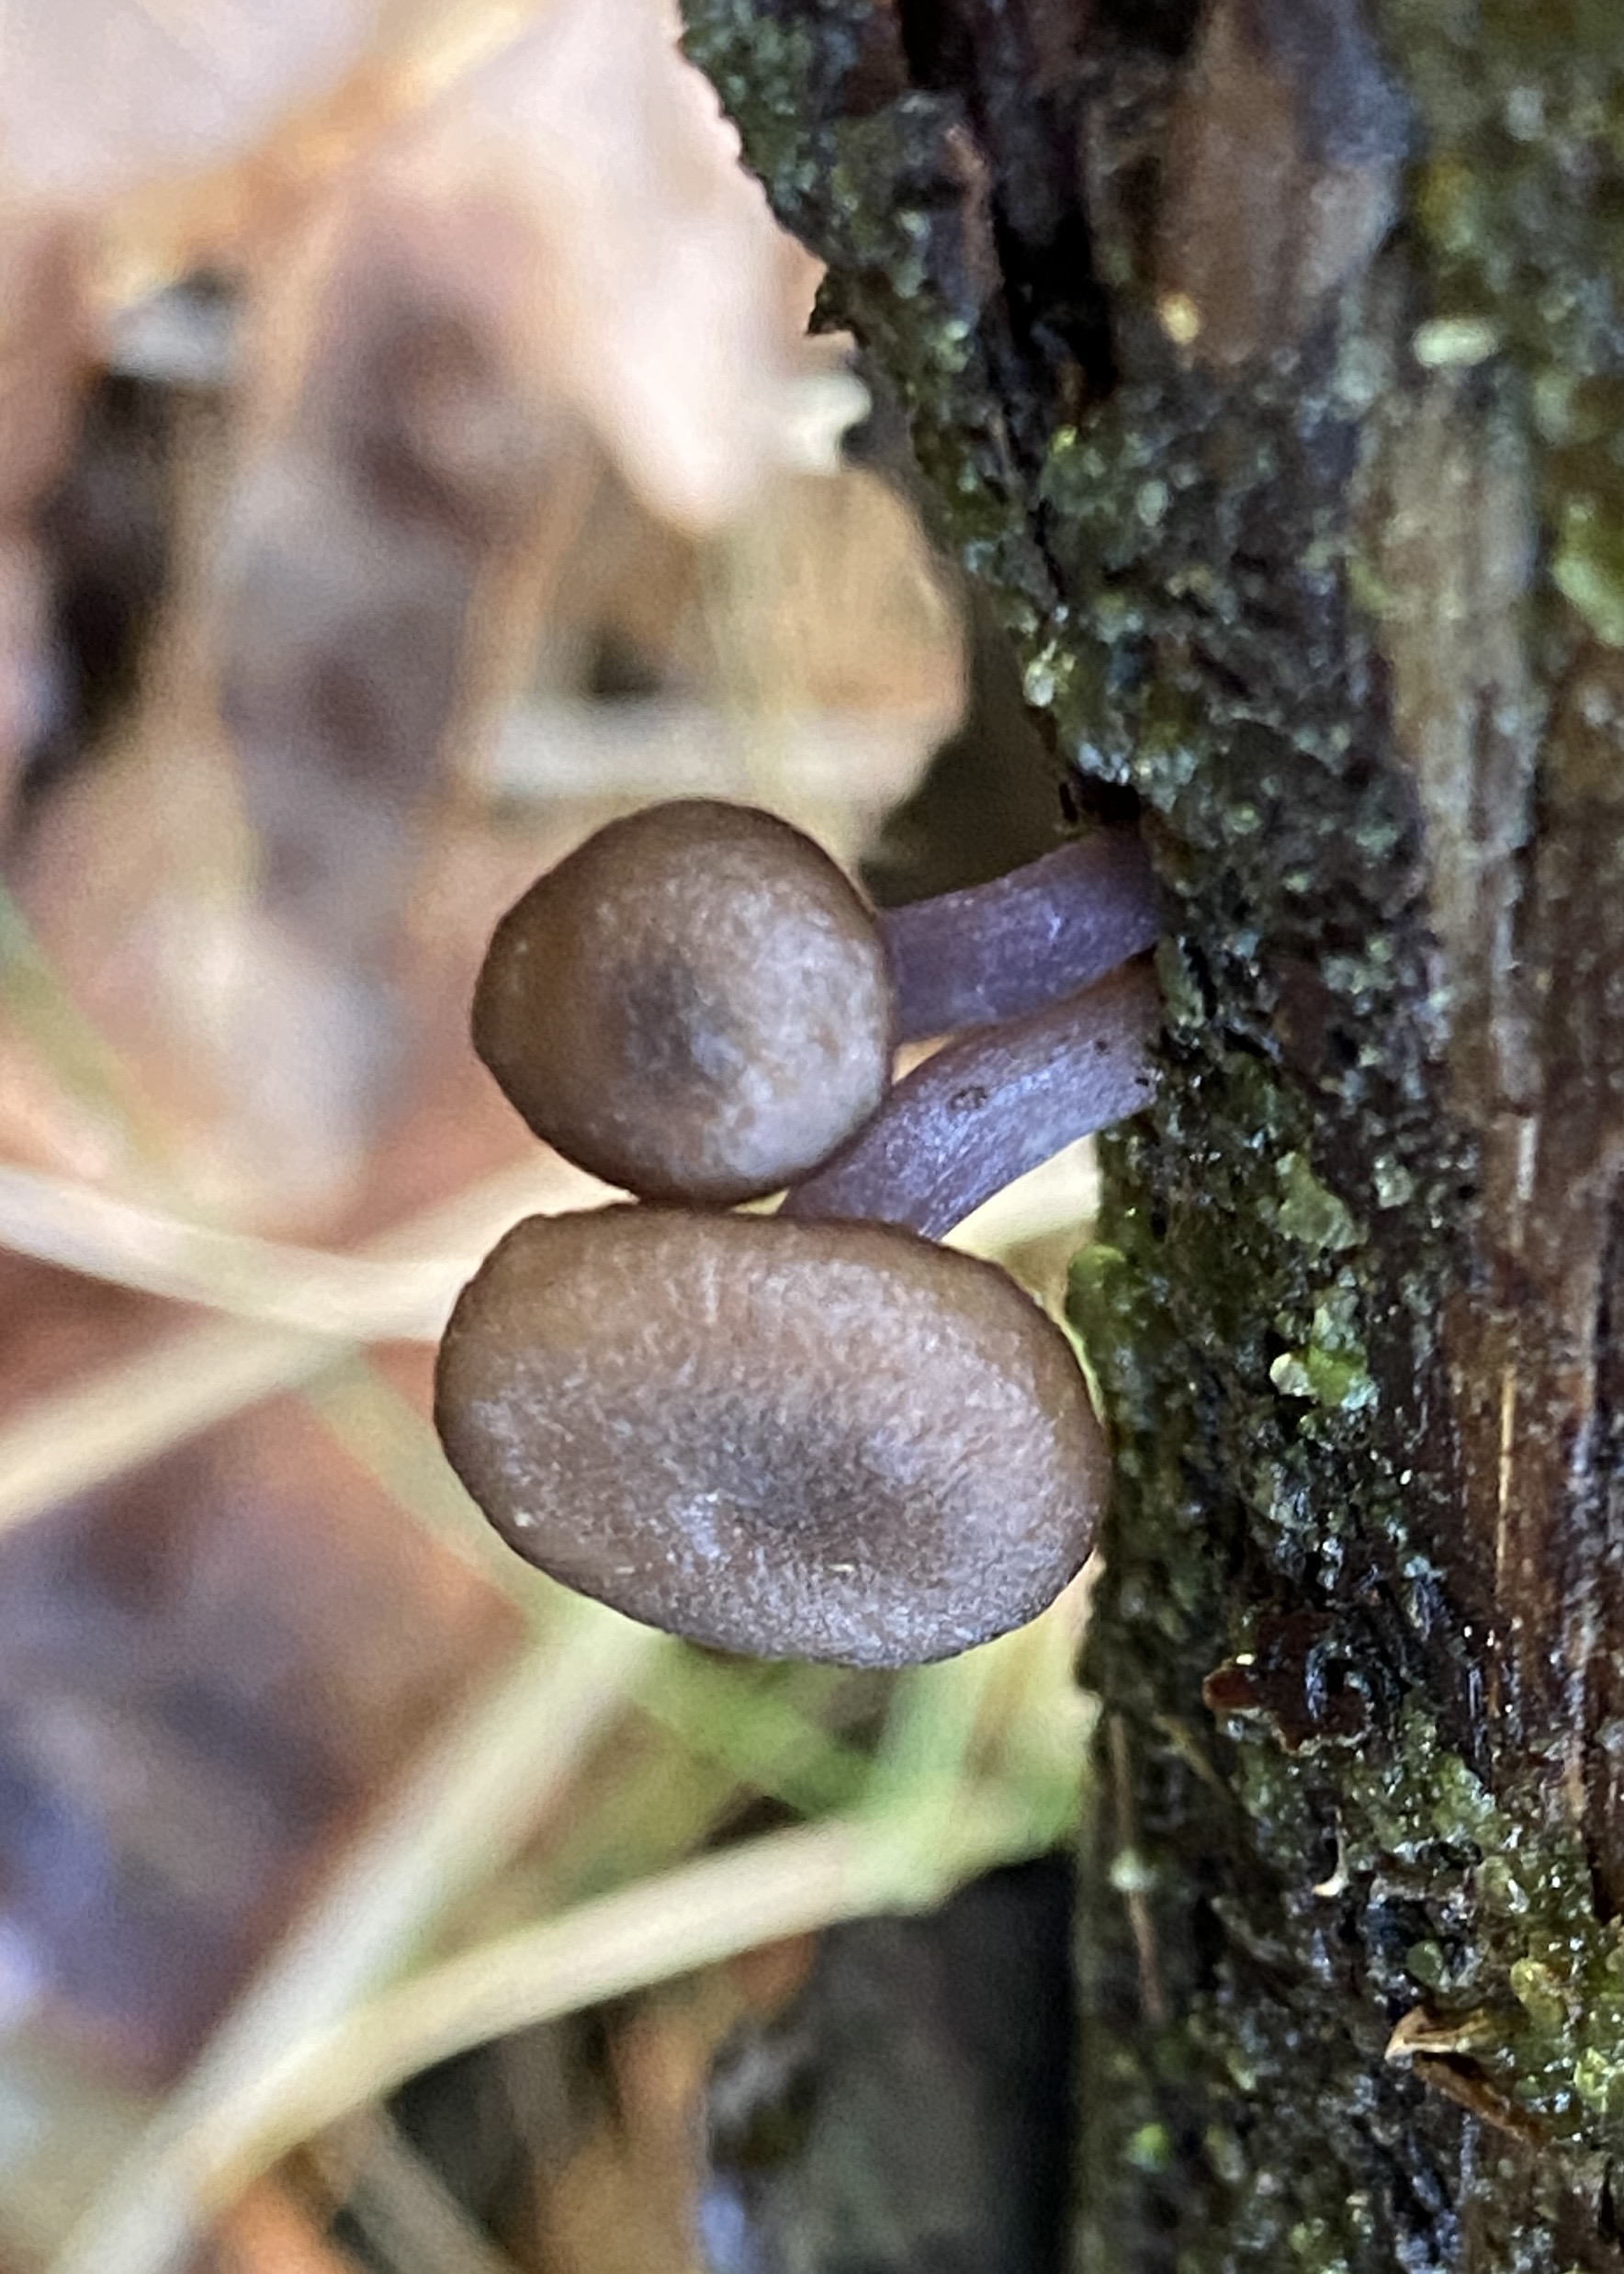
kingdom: Fungi
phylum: Basidiomycota
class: Agaricomycetes
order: Agaricales
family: Entolomataceae
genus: Entoloma
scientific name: Entoloma zuccherellii
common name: skærmhatagtig rødblad
